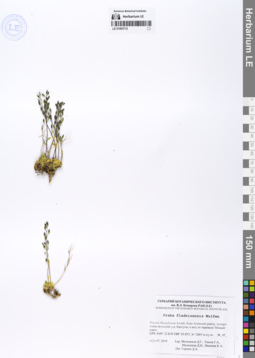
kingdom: Plantae
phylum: Tracheophyta
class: Magnoliopsida
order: Brassicales
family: Brassicaceae
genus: Draba
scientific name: Draba fladnizensis
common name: Austrian draba
